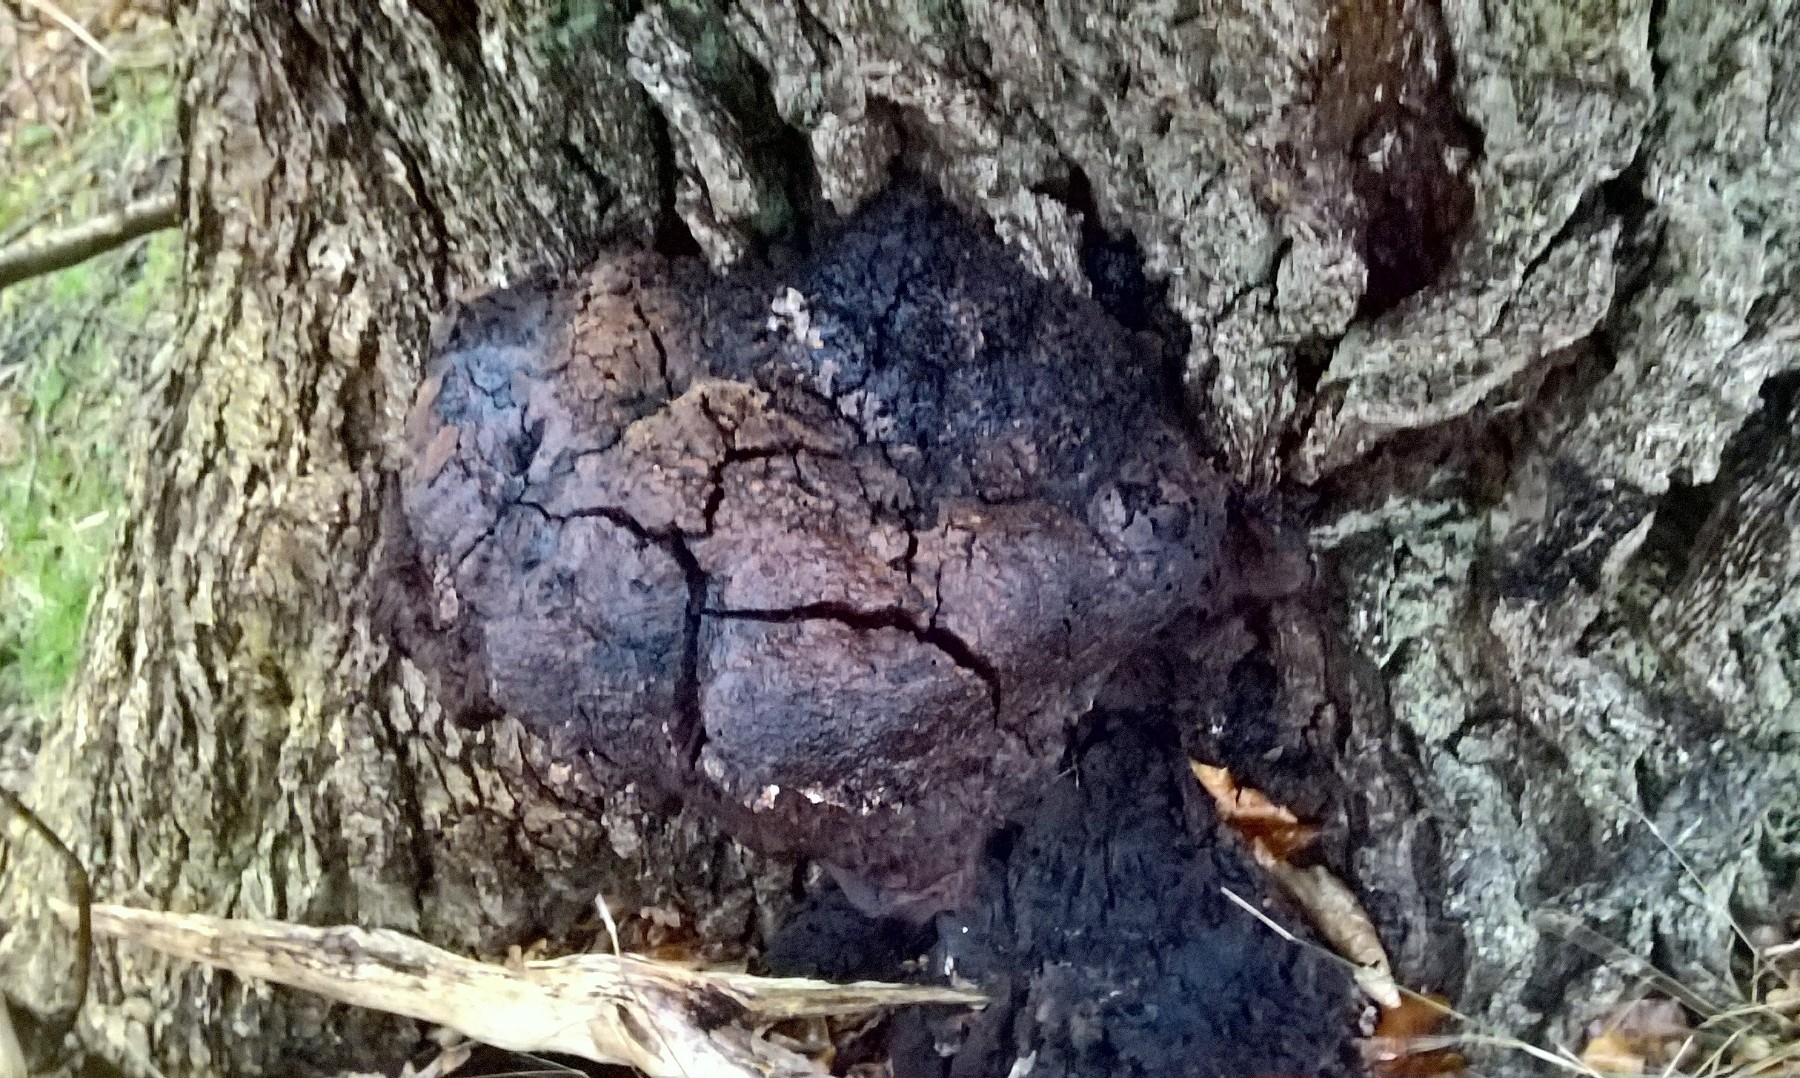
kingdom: Fungi
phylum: Basidiomycota
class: Agaricomycetes
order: Hymenochaetales
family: Hymenochaetaceae
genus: Pseudoinonotus
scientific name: Pseudoinonotus dryadeus
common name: ege-spejlporesvamp
